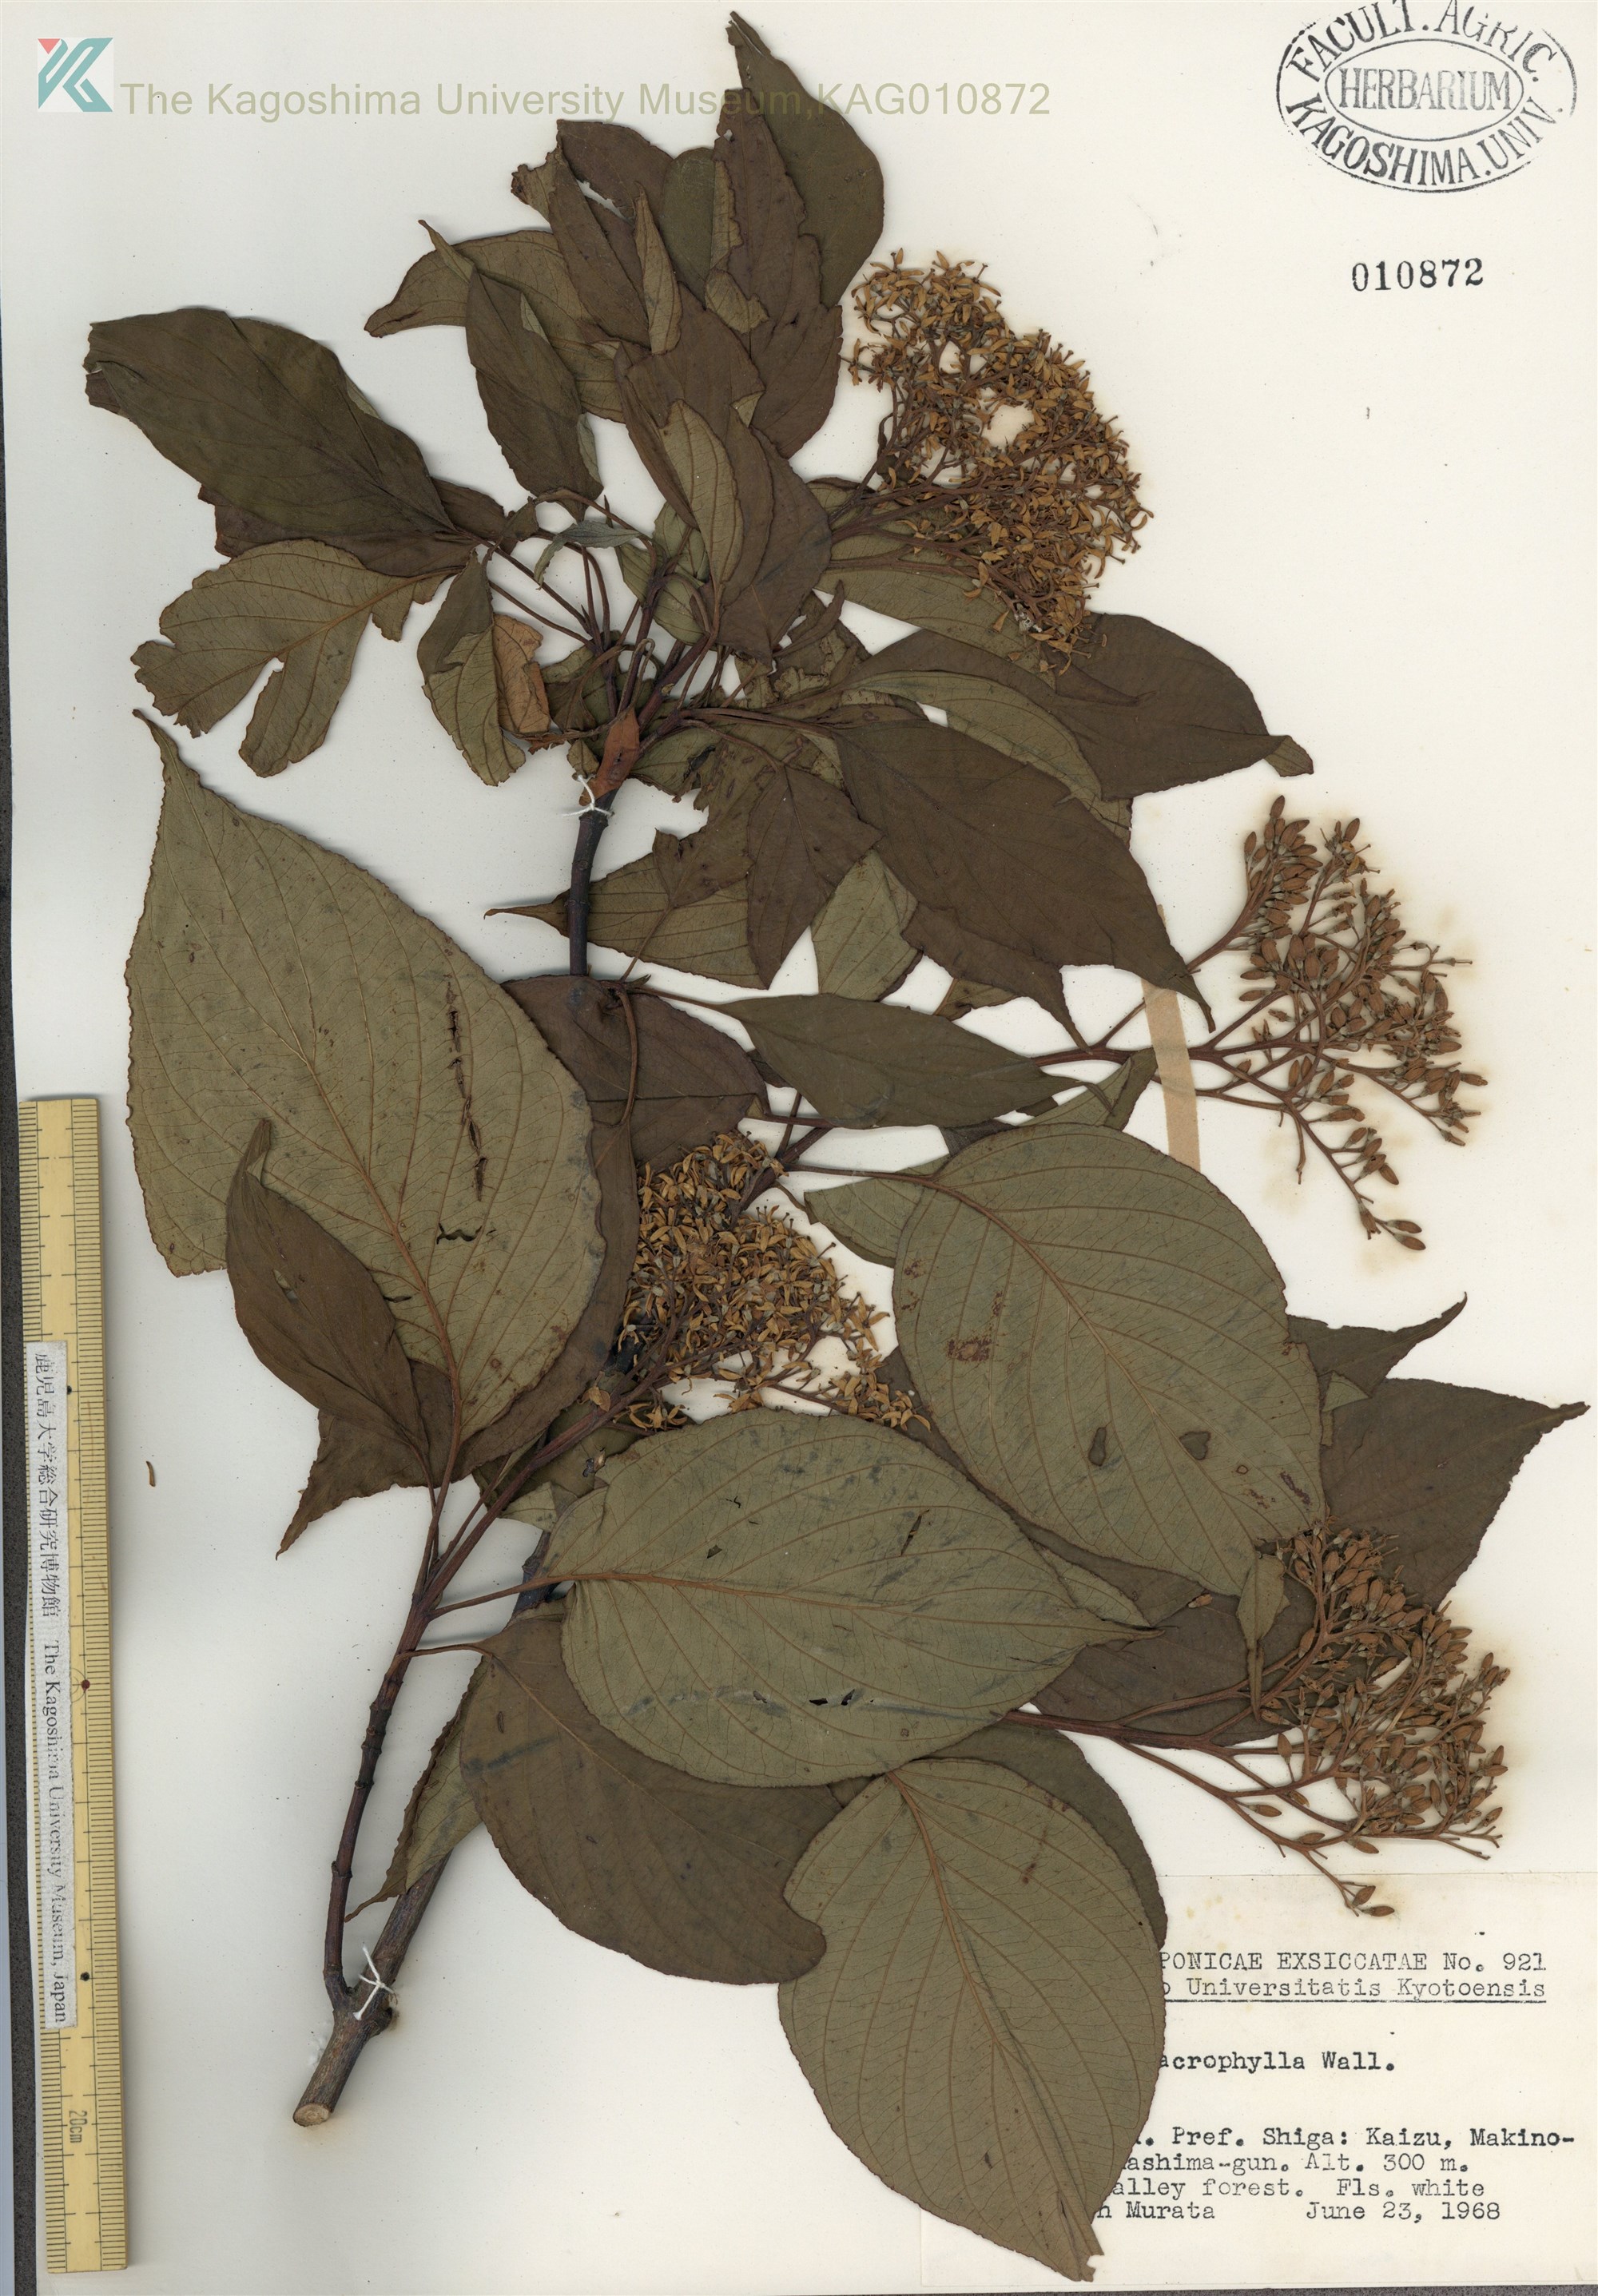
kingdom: Plantae
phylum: Tracheophyta
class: Magnoliopsida
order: Cornales
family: Cornaceae
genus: Cornus
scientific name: Cornus macrophylla
